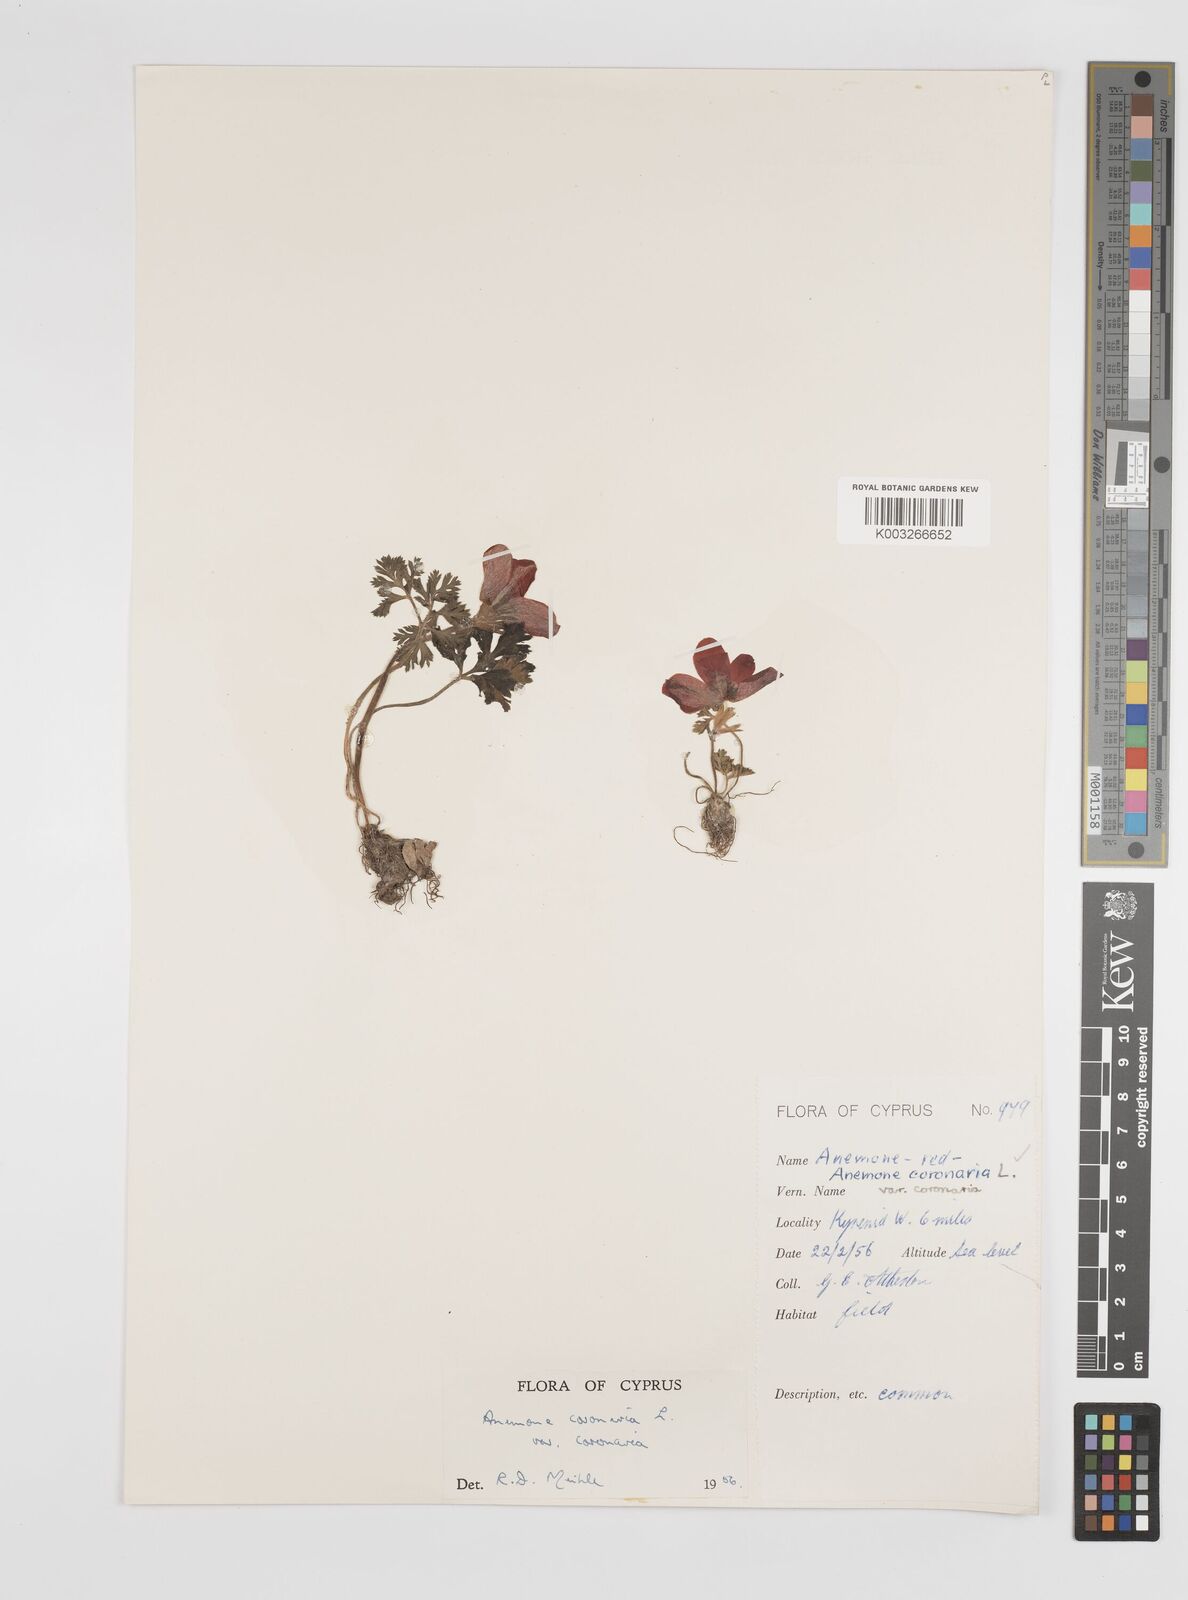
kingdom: Plantae
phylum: Tracheophyta
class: Magnoliopsida
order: Ranunculales
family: Ranunculaceae
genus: Anemone
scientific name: Anemone coronaria
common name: Poppy anemone
